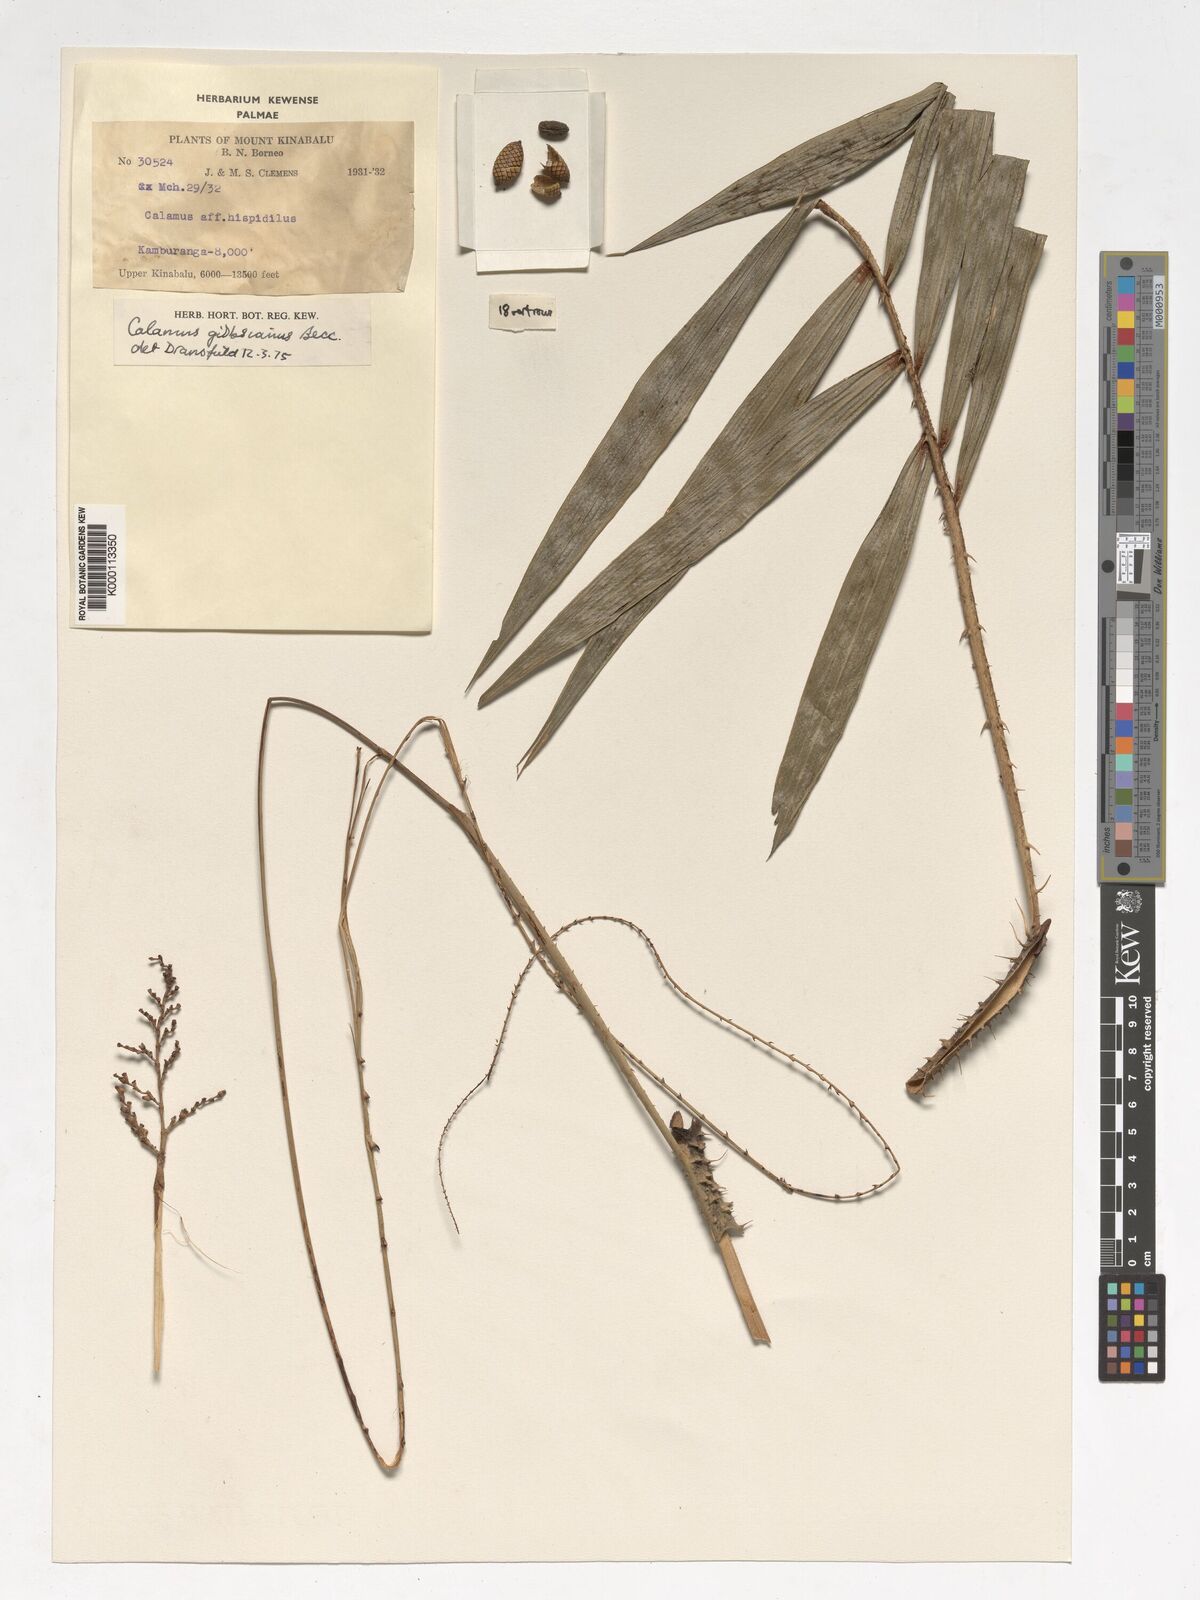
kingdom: Plantae
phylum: Tracheophyta
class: Liliopsida
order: Arecales
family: Arecaceae
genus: Calamus
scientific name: Calamus gibbsianus
